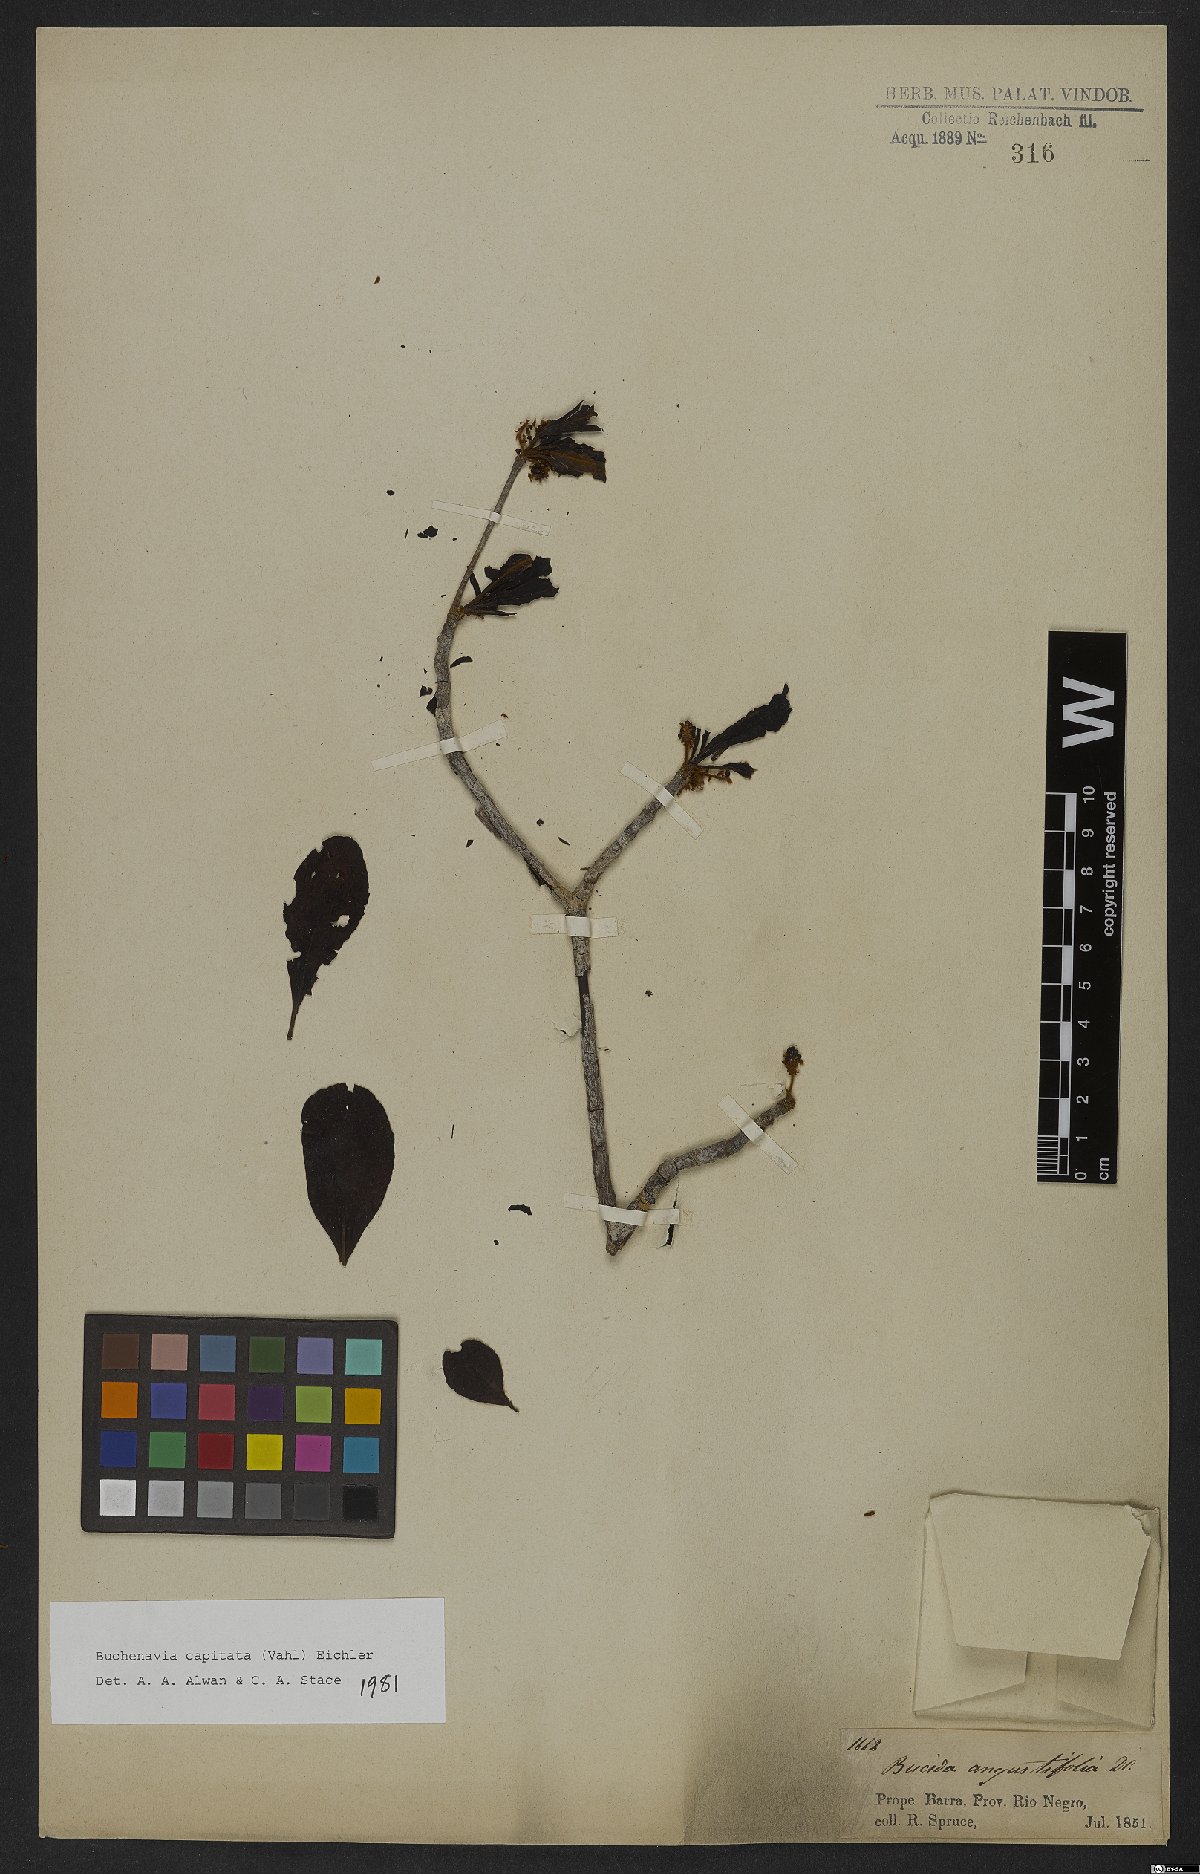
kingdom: Plantae
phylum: Tracheophyta
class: Magnoliopsida
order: Myrtales
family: Combretaceae
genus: Terminalia
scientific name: Terminalia tetraphylla
